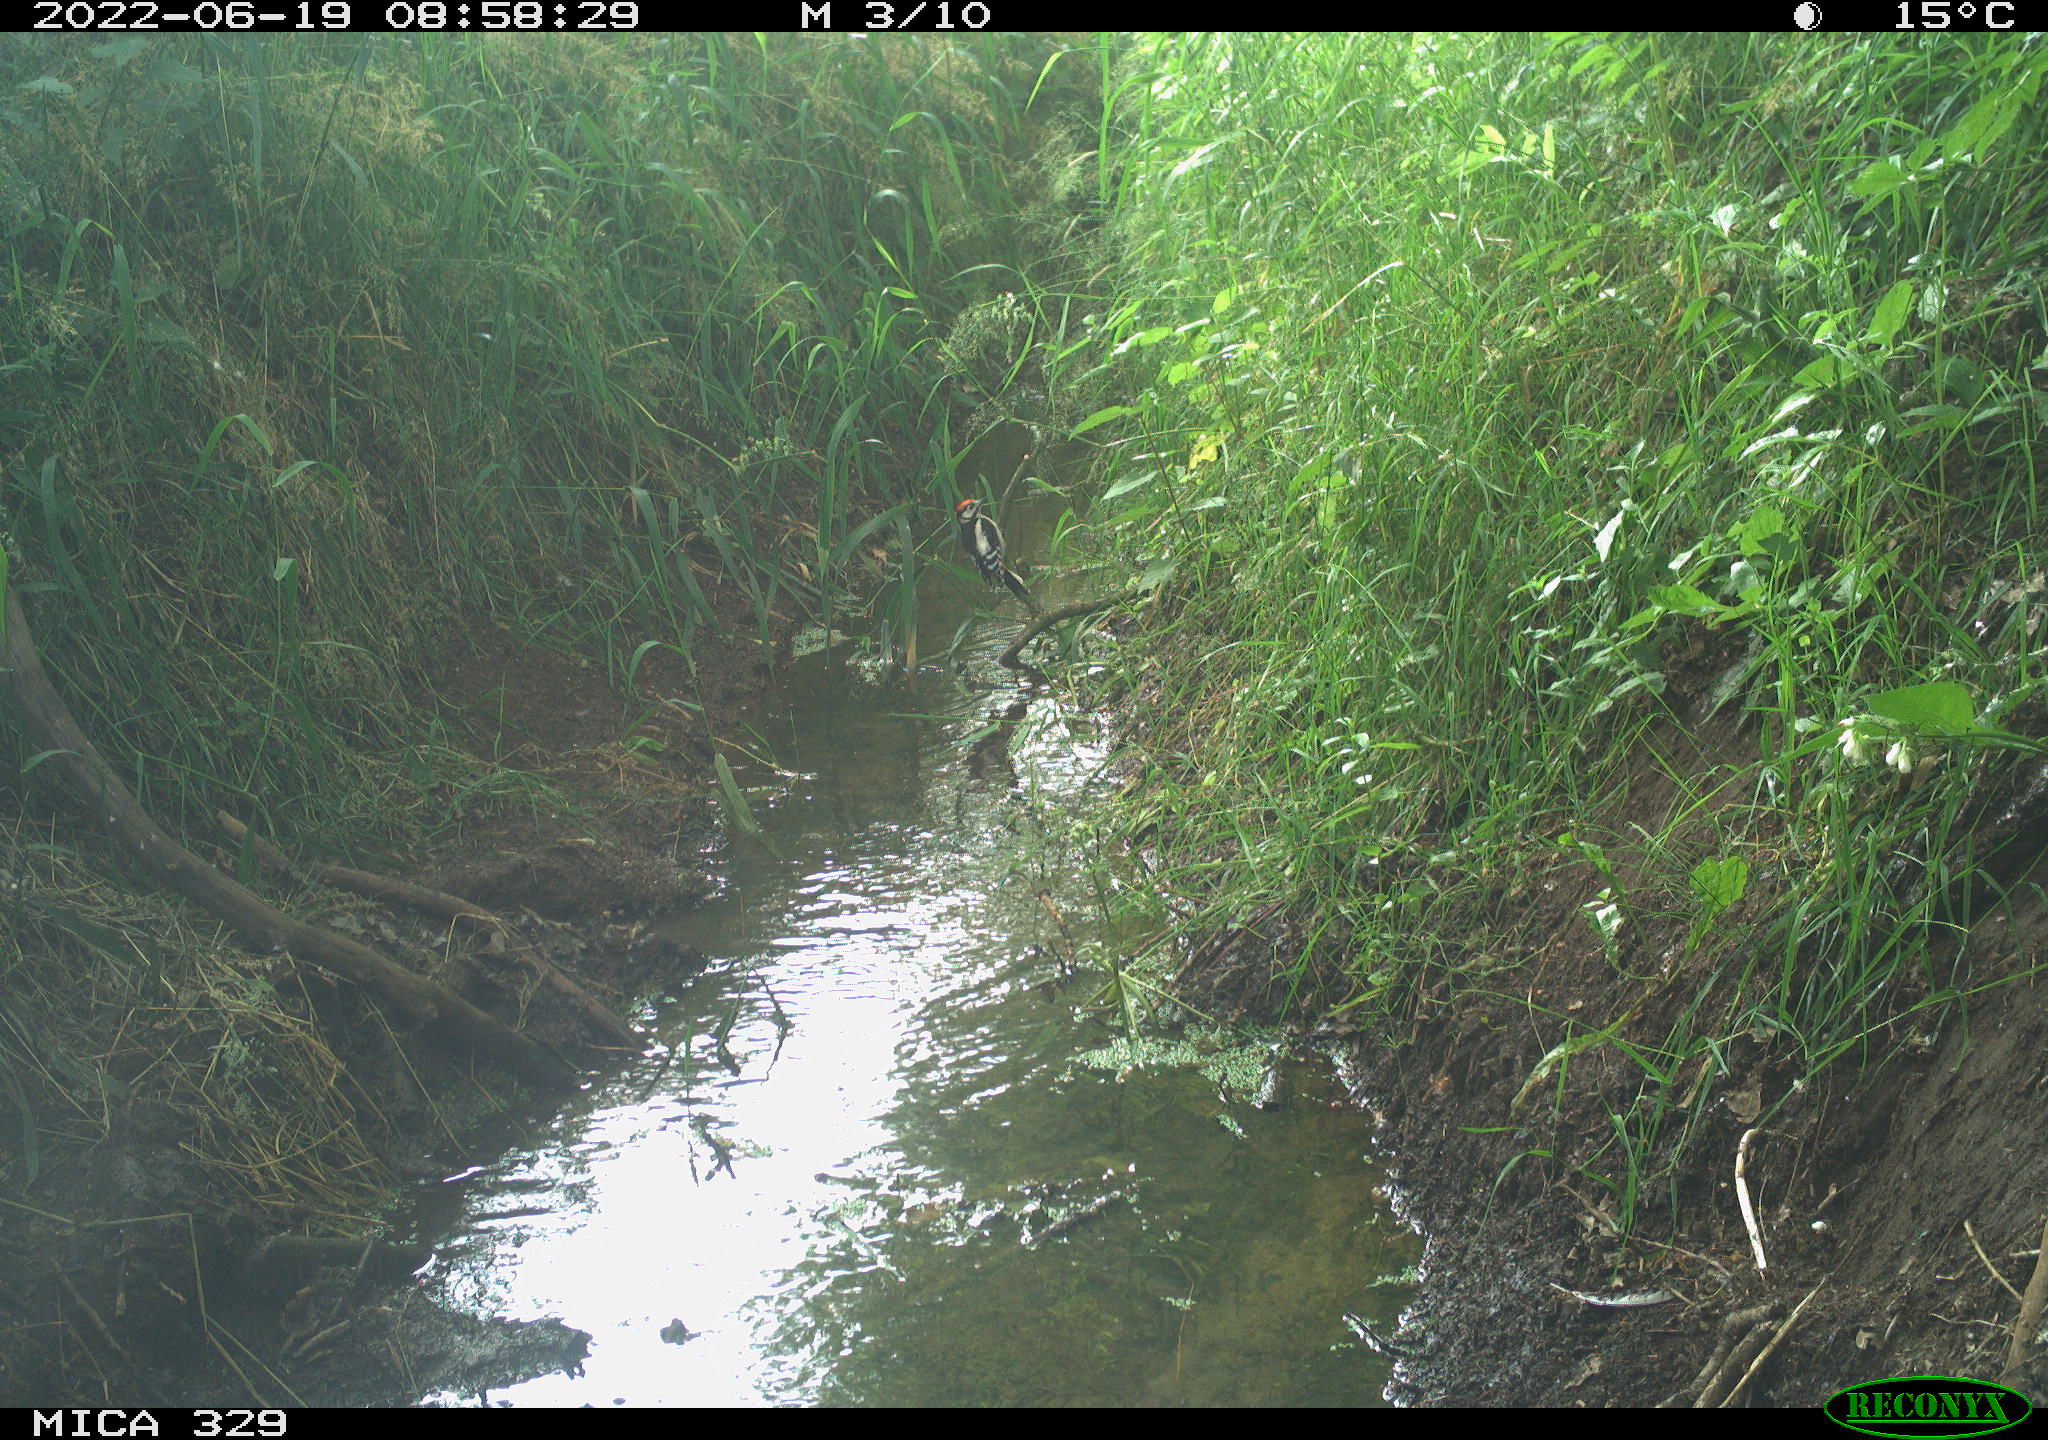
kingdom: Animalia
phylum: Chordata
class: Aves
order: Piciformes
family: Picidae
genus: Dendrocopos
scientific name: Dendrocopos major
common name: Great spotted woodpecker
